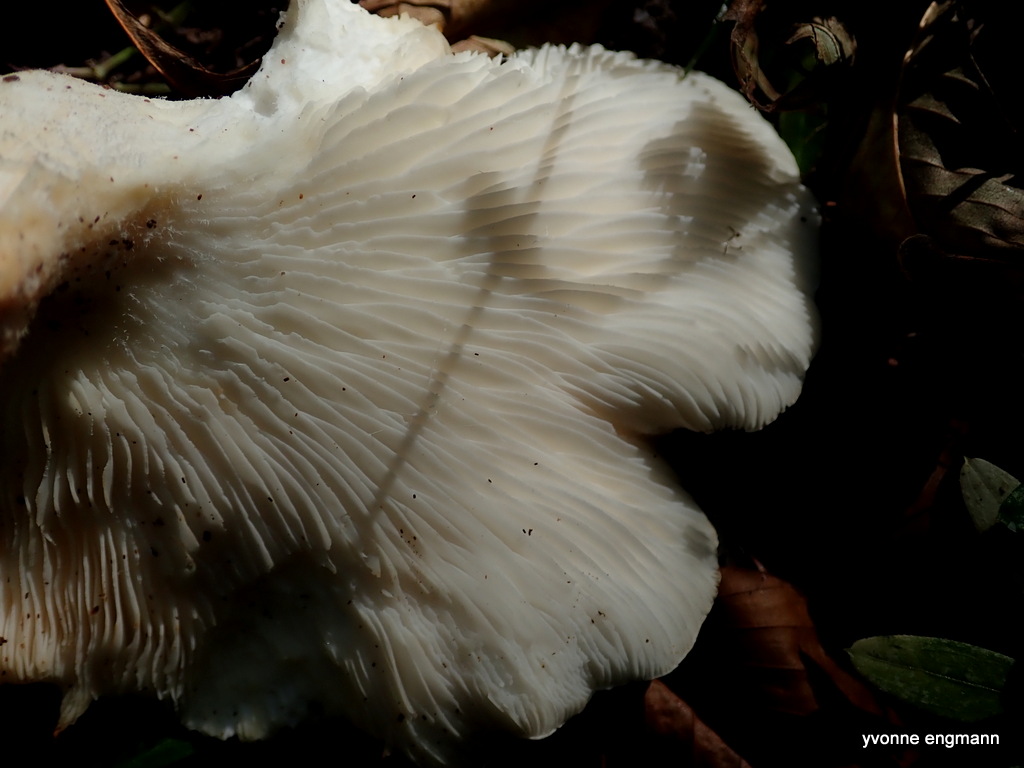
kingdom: Fungi
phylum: Basidiomycota
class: Agaricomycetes
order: Agaricales
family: Pleurotaceae
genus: Pleurotus
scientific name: Pleurotus dryinus
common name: korkagtig østershat
